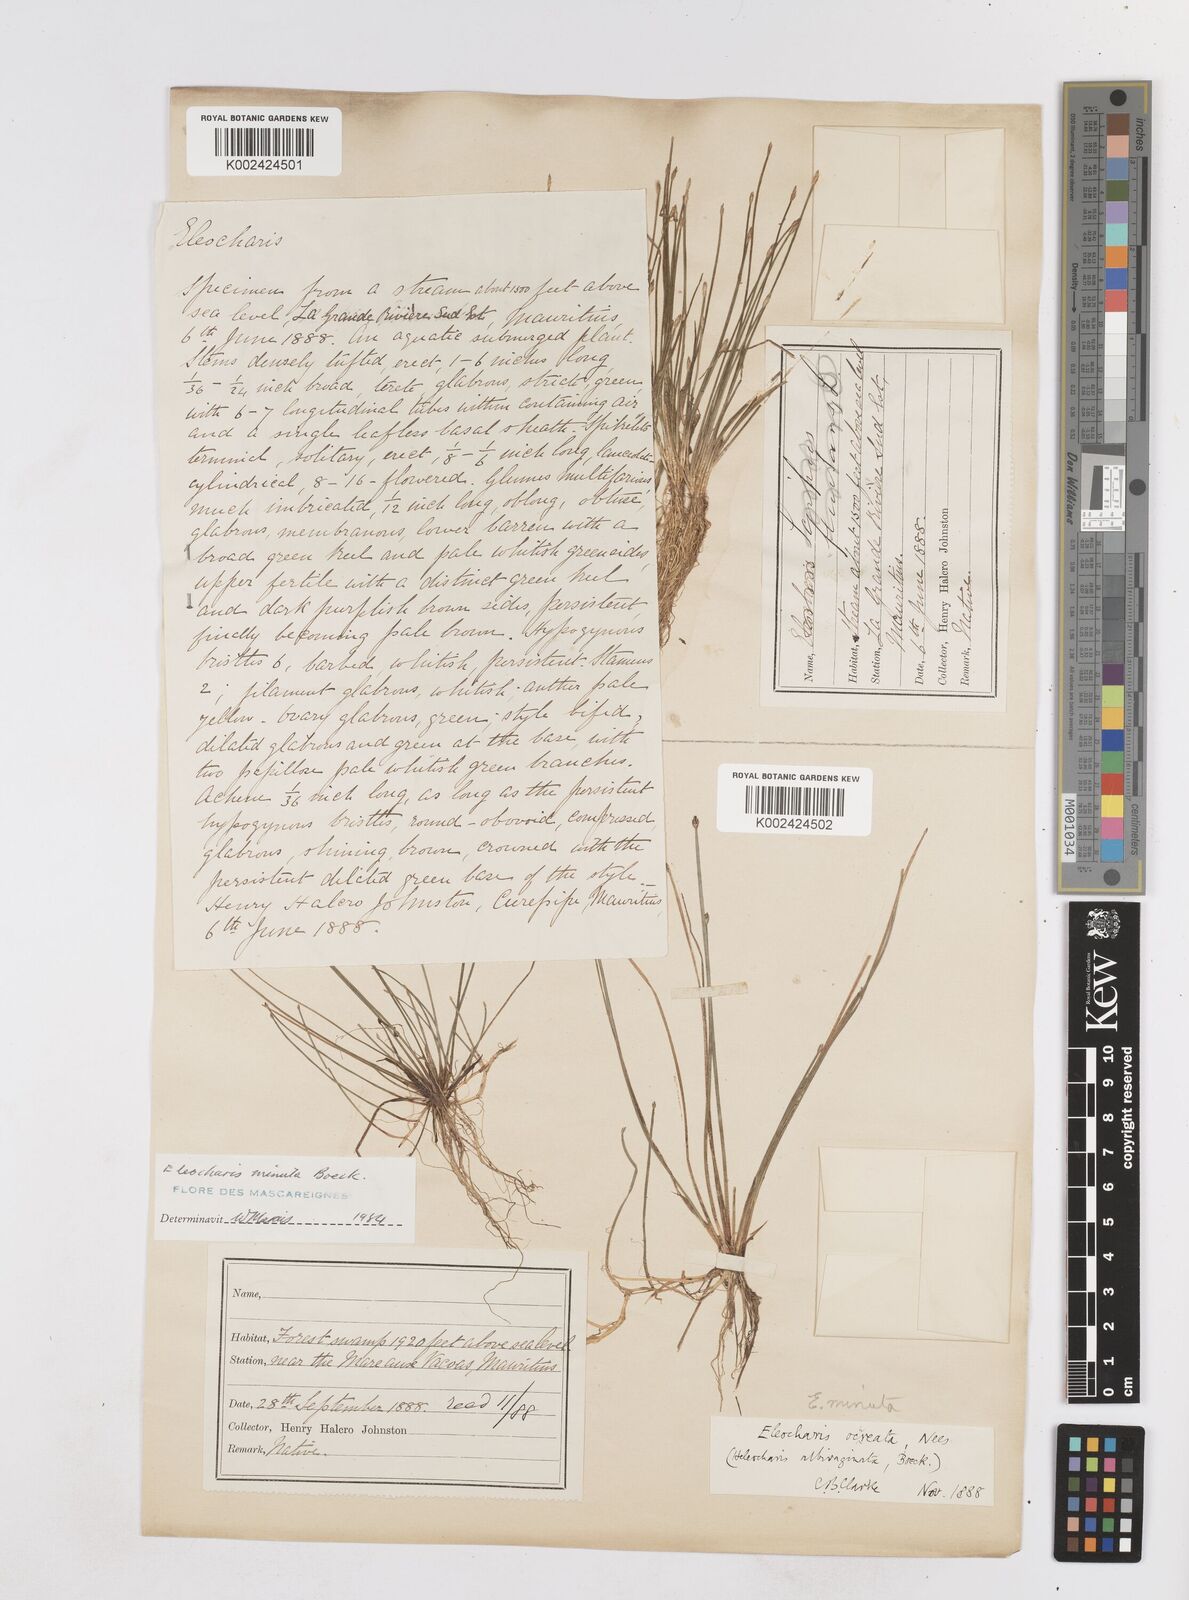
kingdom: Plantae
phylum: Tracheophyta
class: Liliopsida
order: Poales
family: Cyperaceae
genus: Eleocharis
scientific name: Eleocharis minuta
